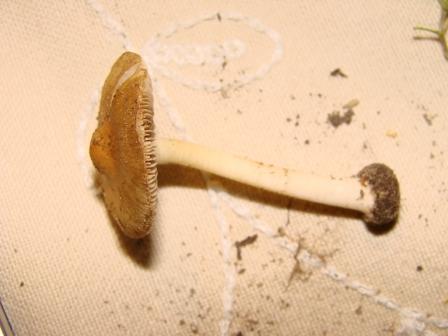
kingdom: Fungi
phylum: Basidiomycota
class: Agaricomycetes
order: Agaricales
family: Inocybaceae
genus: Inocybe
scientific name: Inocybe mixtilis
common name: randknoldet trævlhat
